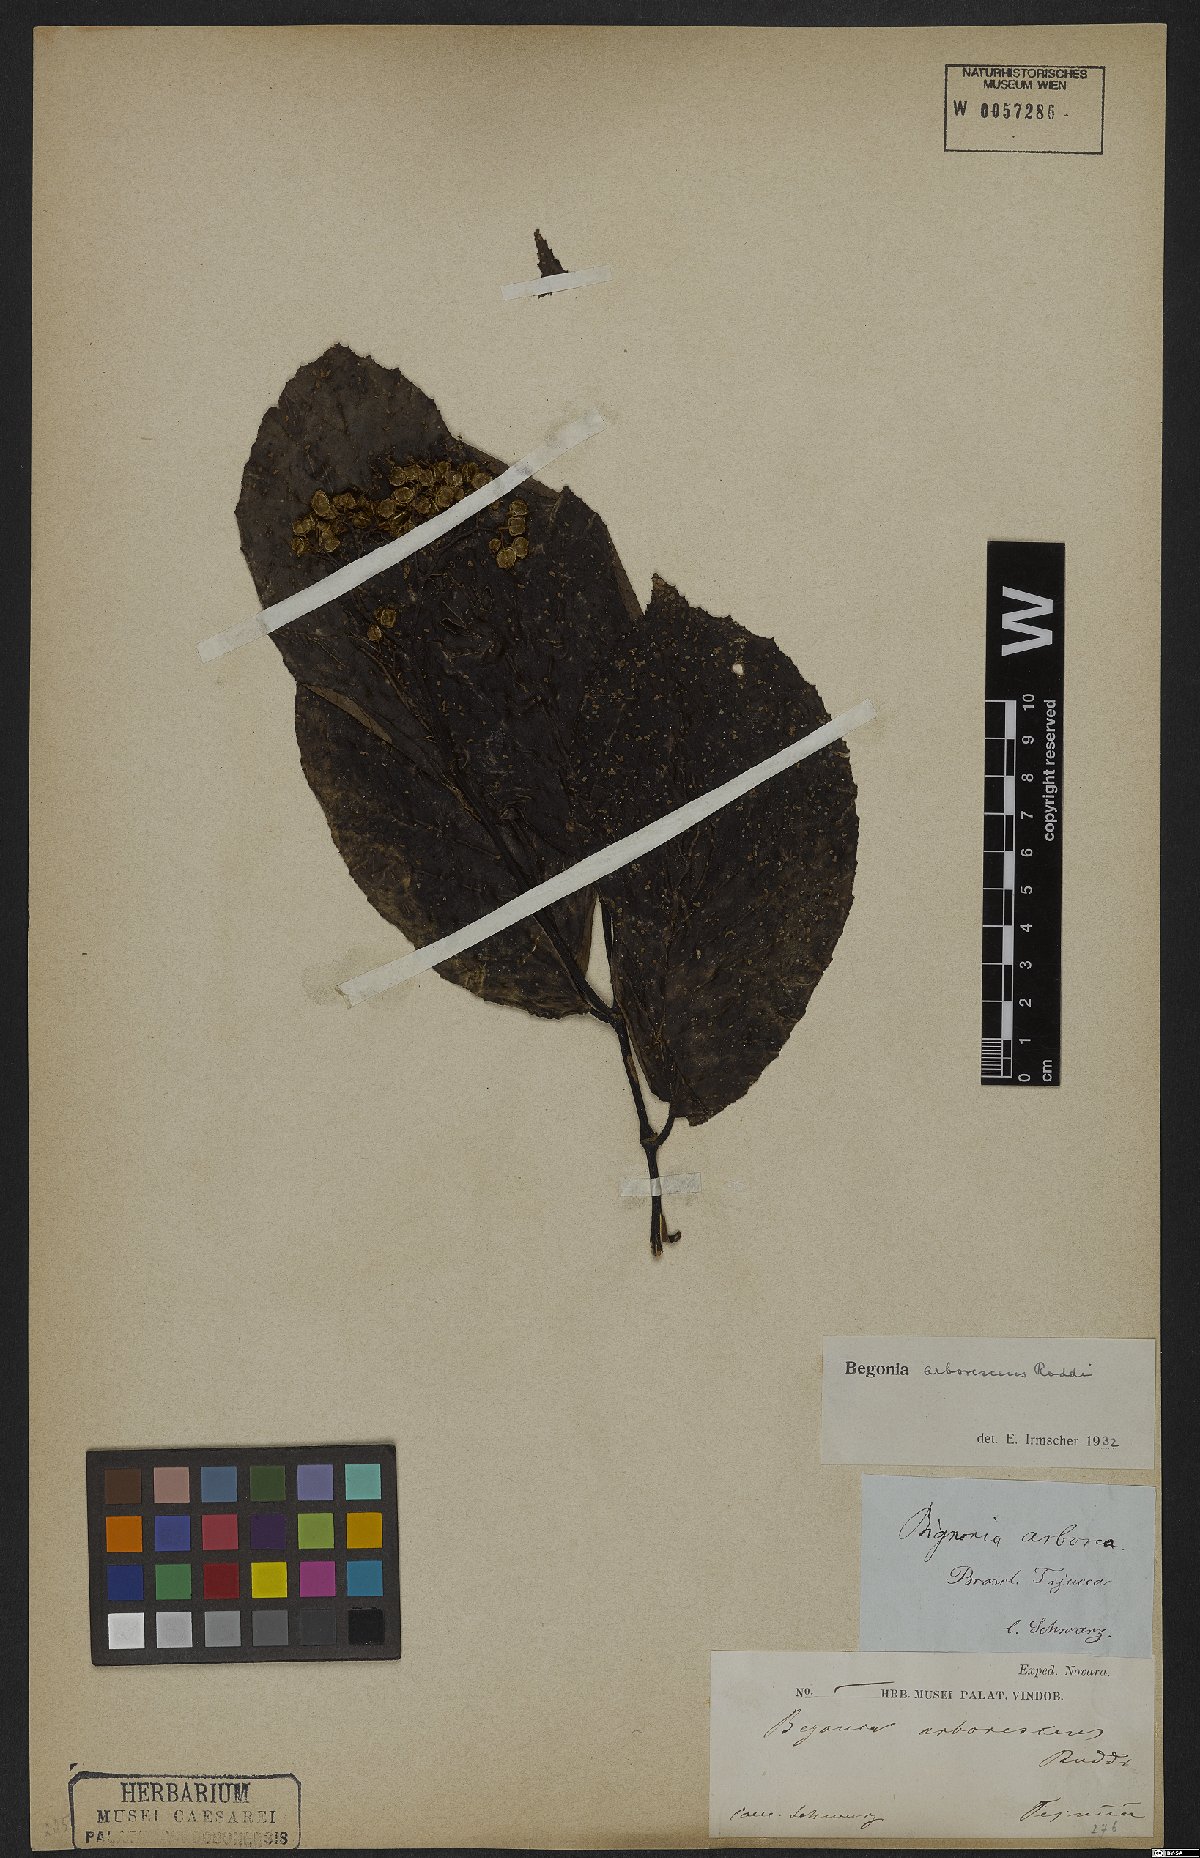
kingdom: Plantae
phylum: Tracheophyta
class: Magnoliopsida
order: Cucurbitales
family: Begoniaceae
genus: Begonia
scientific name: Begonia arborescens
